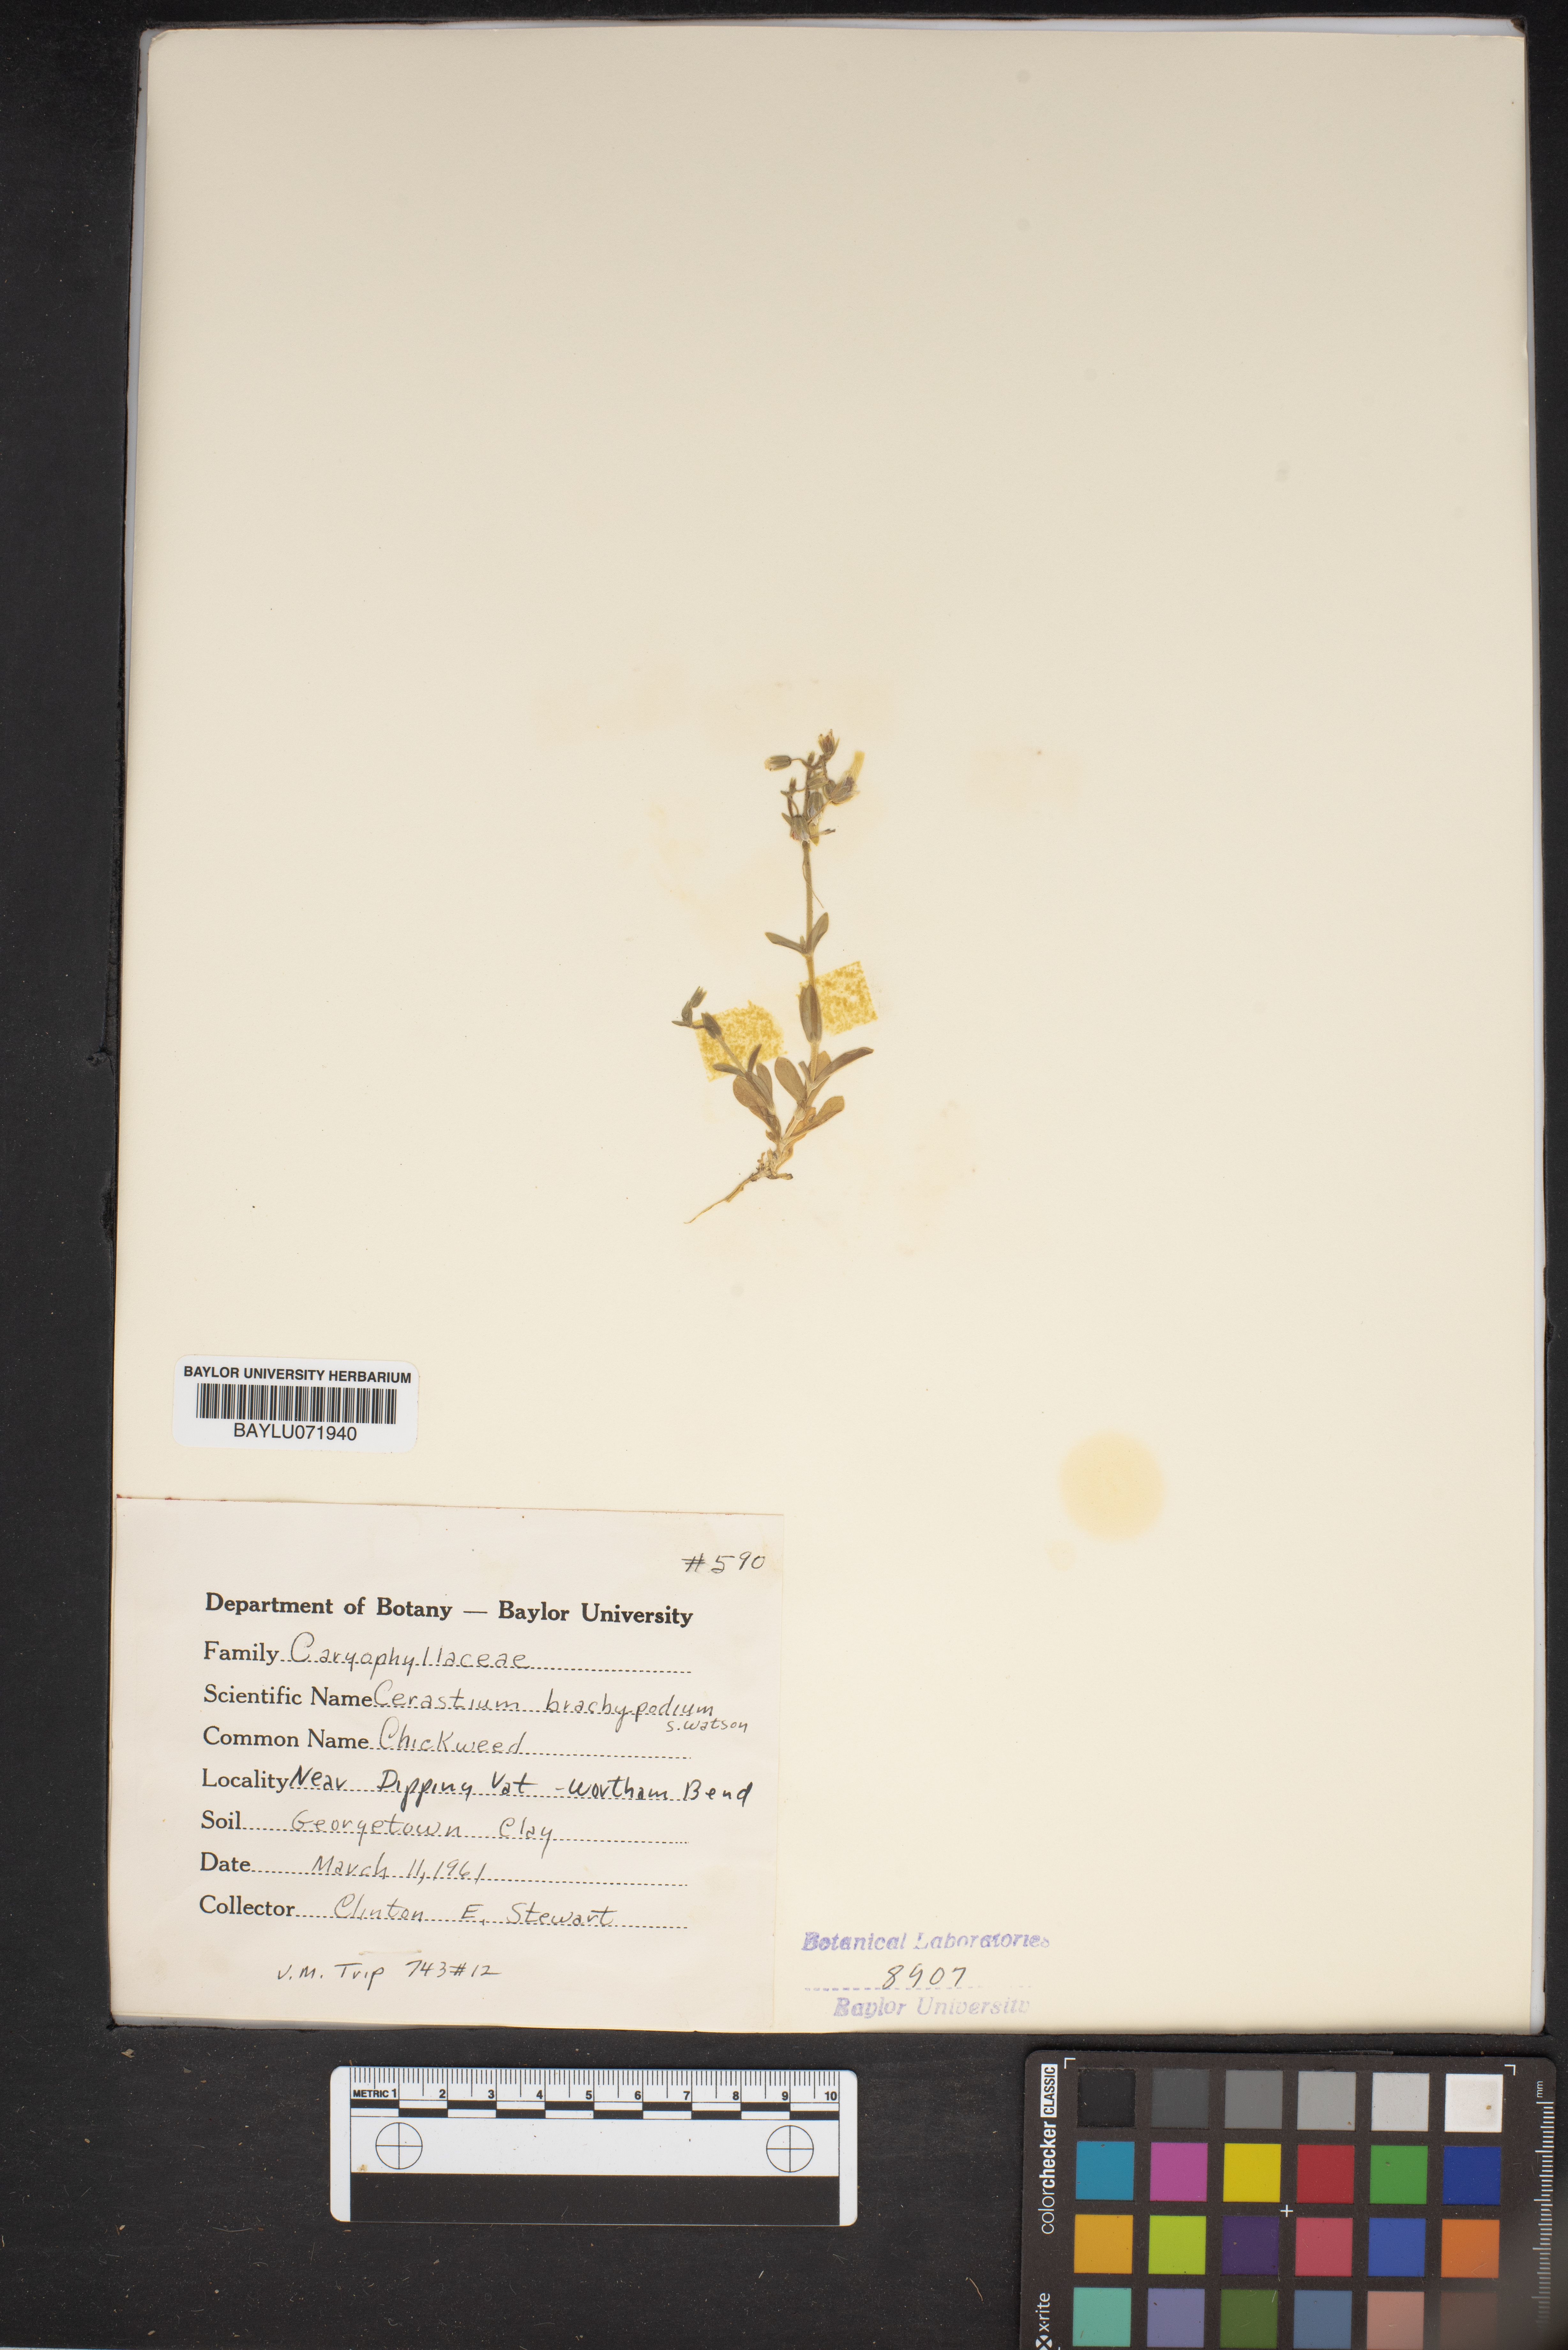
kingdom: Plantae
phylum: Tracheophyta
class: Magnoliopsida
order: Caryophyllales
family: Caryophyllaceae
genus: Cerastium
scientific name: Cerastium brachypodum
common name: Short-pedicelled nodding chickweed
